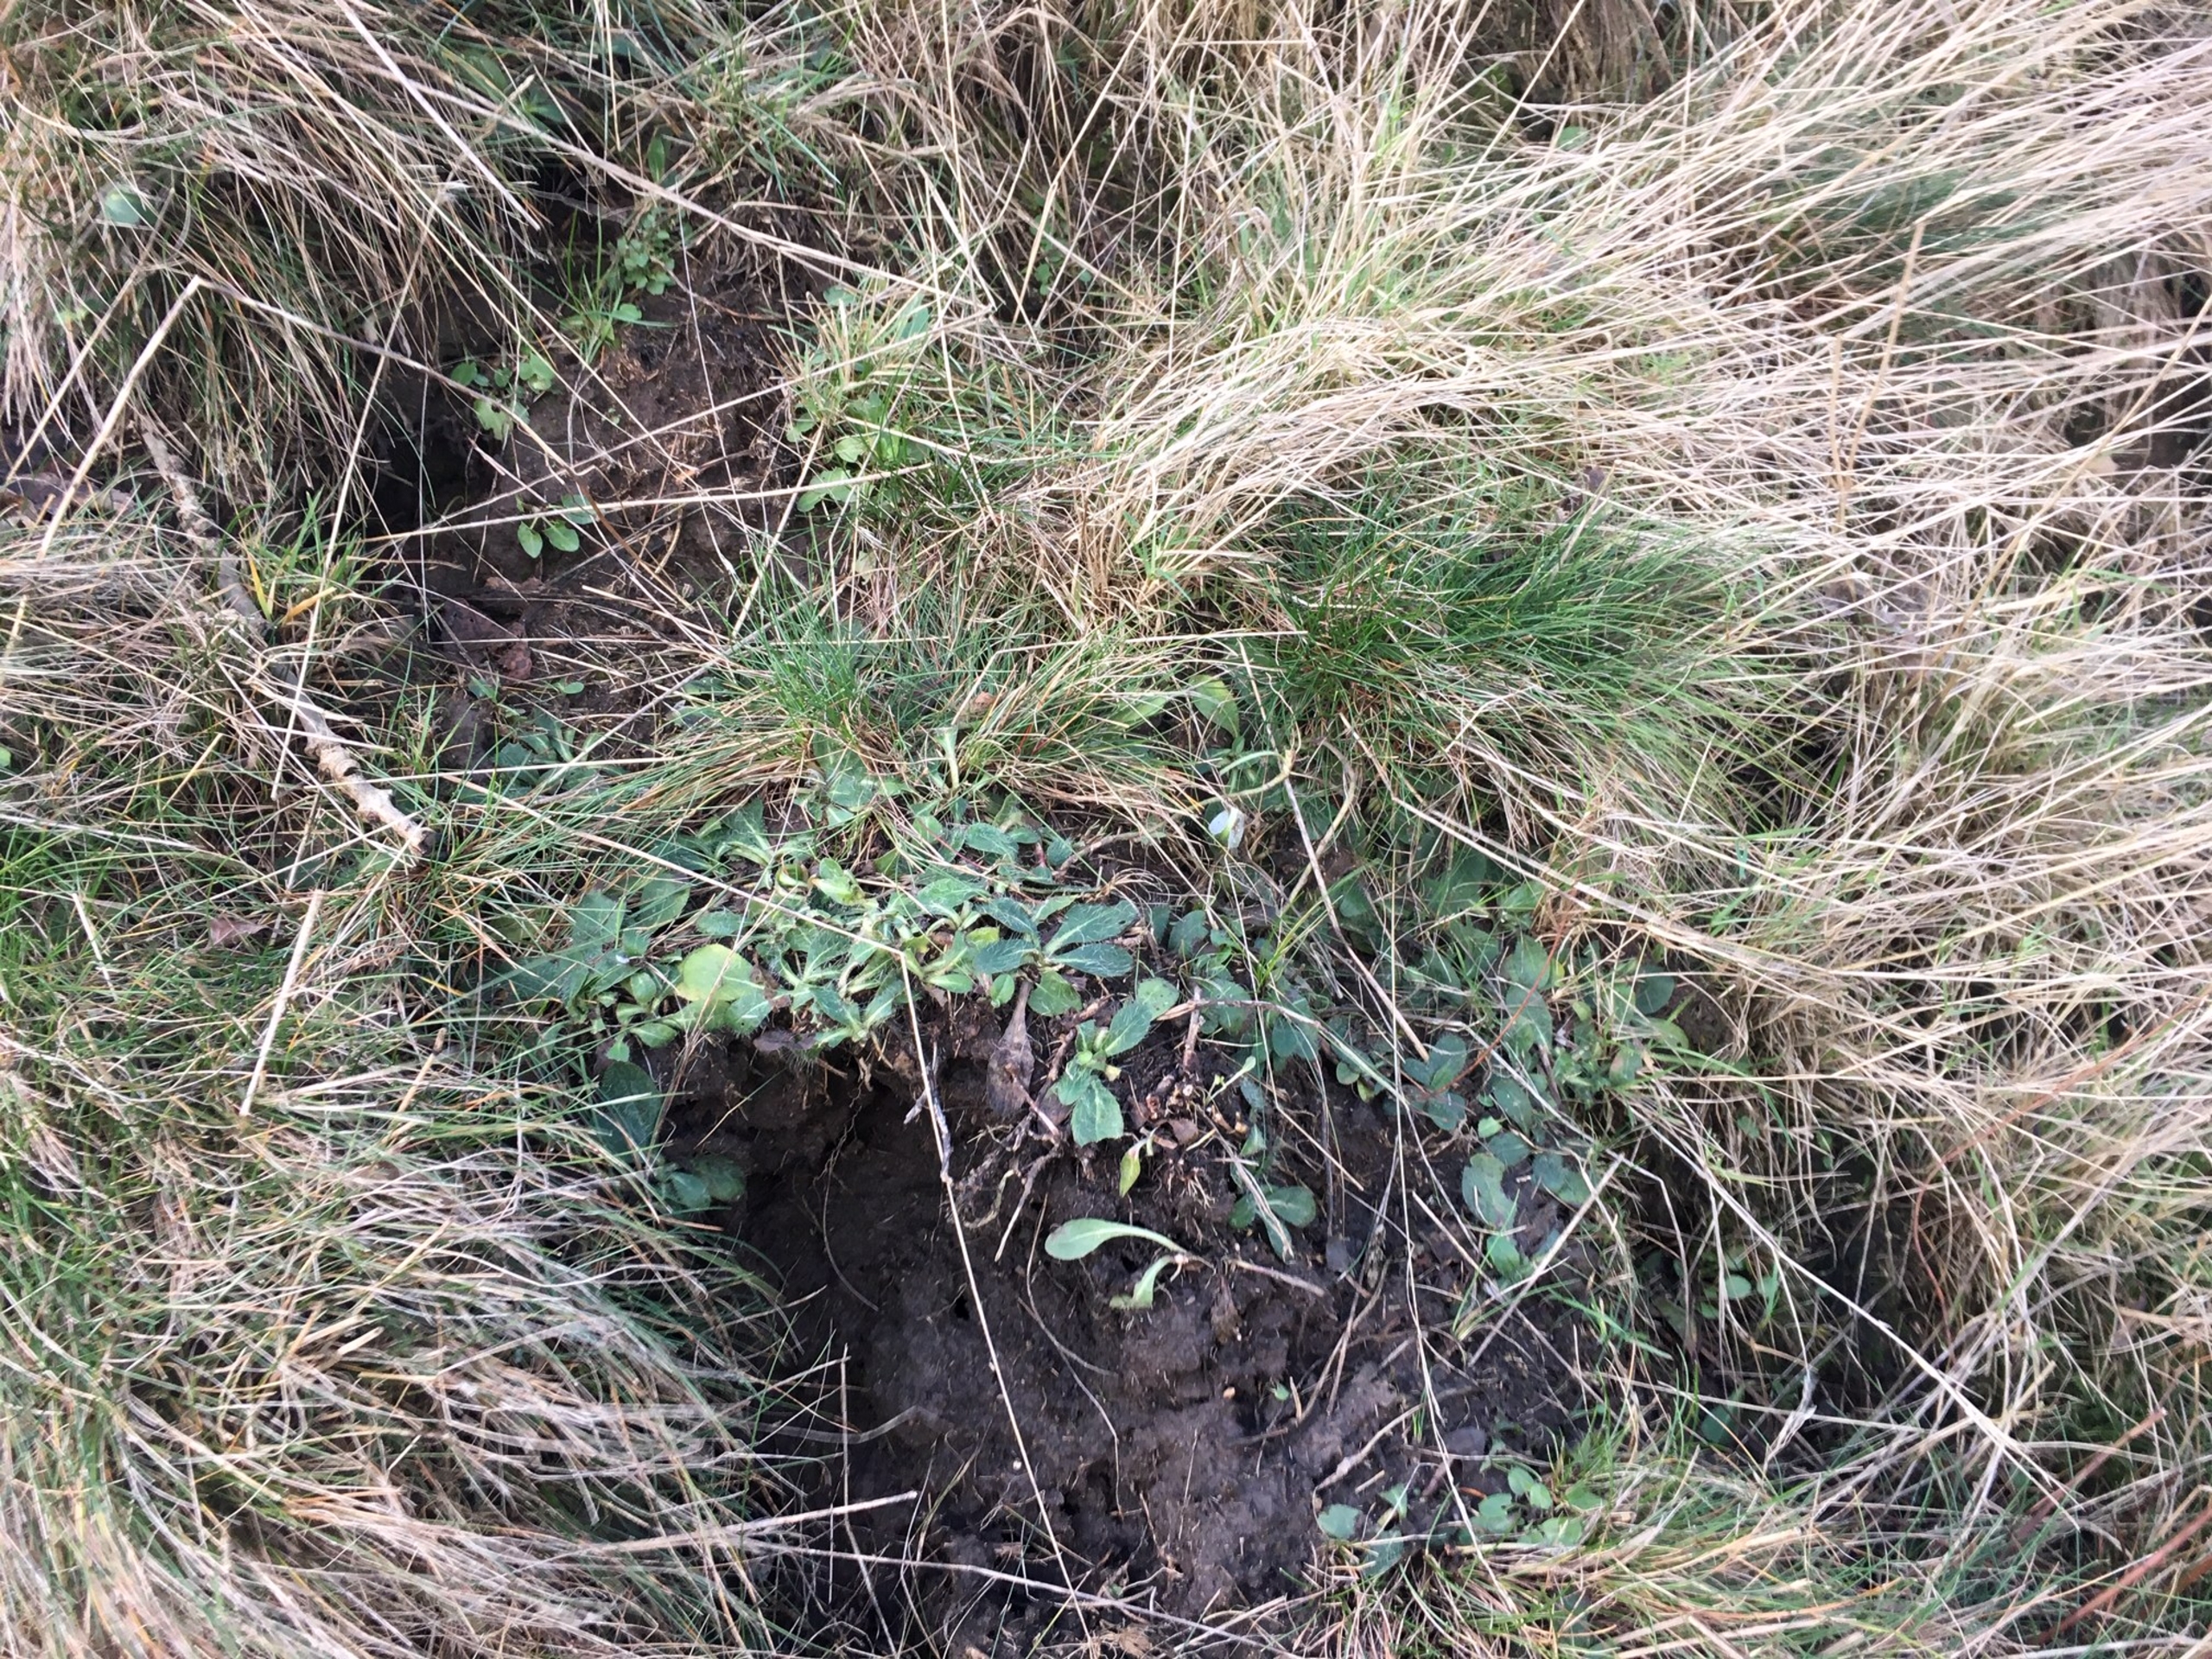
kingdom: Plantae
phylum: Tracheophyta
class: Magnoliopsida
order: Asterales
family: Asteraceae
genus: Pilosella
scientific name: Pilosella officinarum
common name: Håret høgeurt
